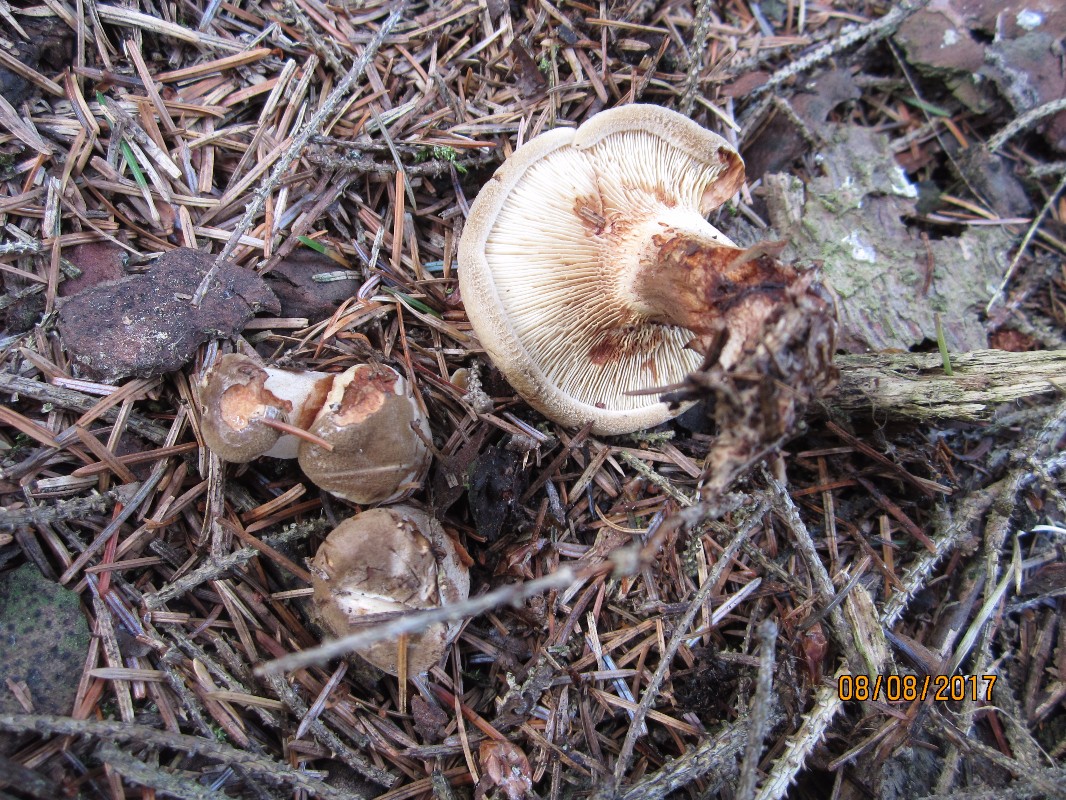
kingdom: Fungi
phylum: Basidiomycota
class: Agaricomycetes
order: Boletales
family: Paxillaceae
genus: Paxillus
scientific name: Paxillus involutus
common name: almindelig netbladhat
